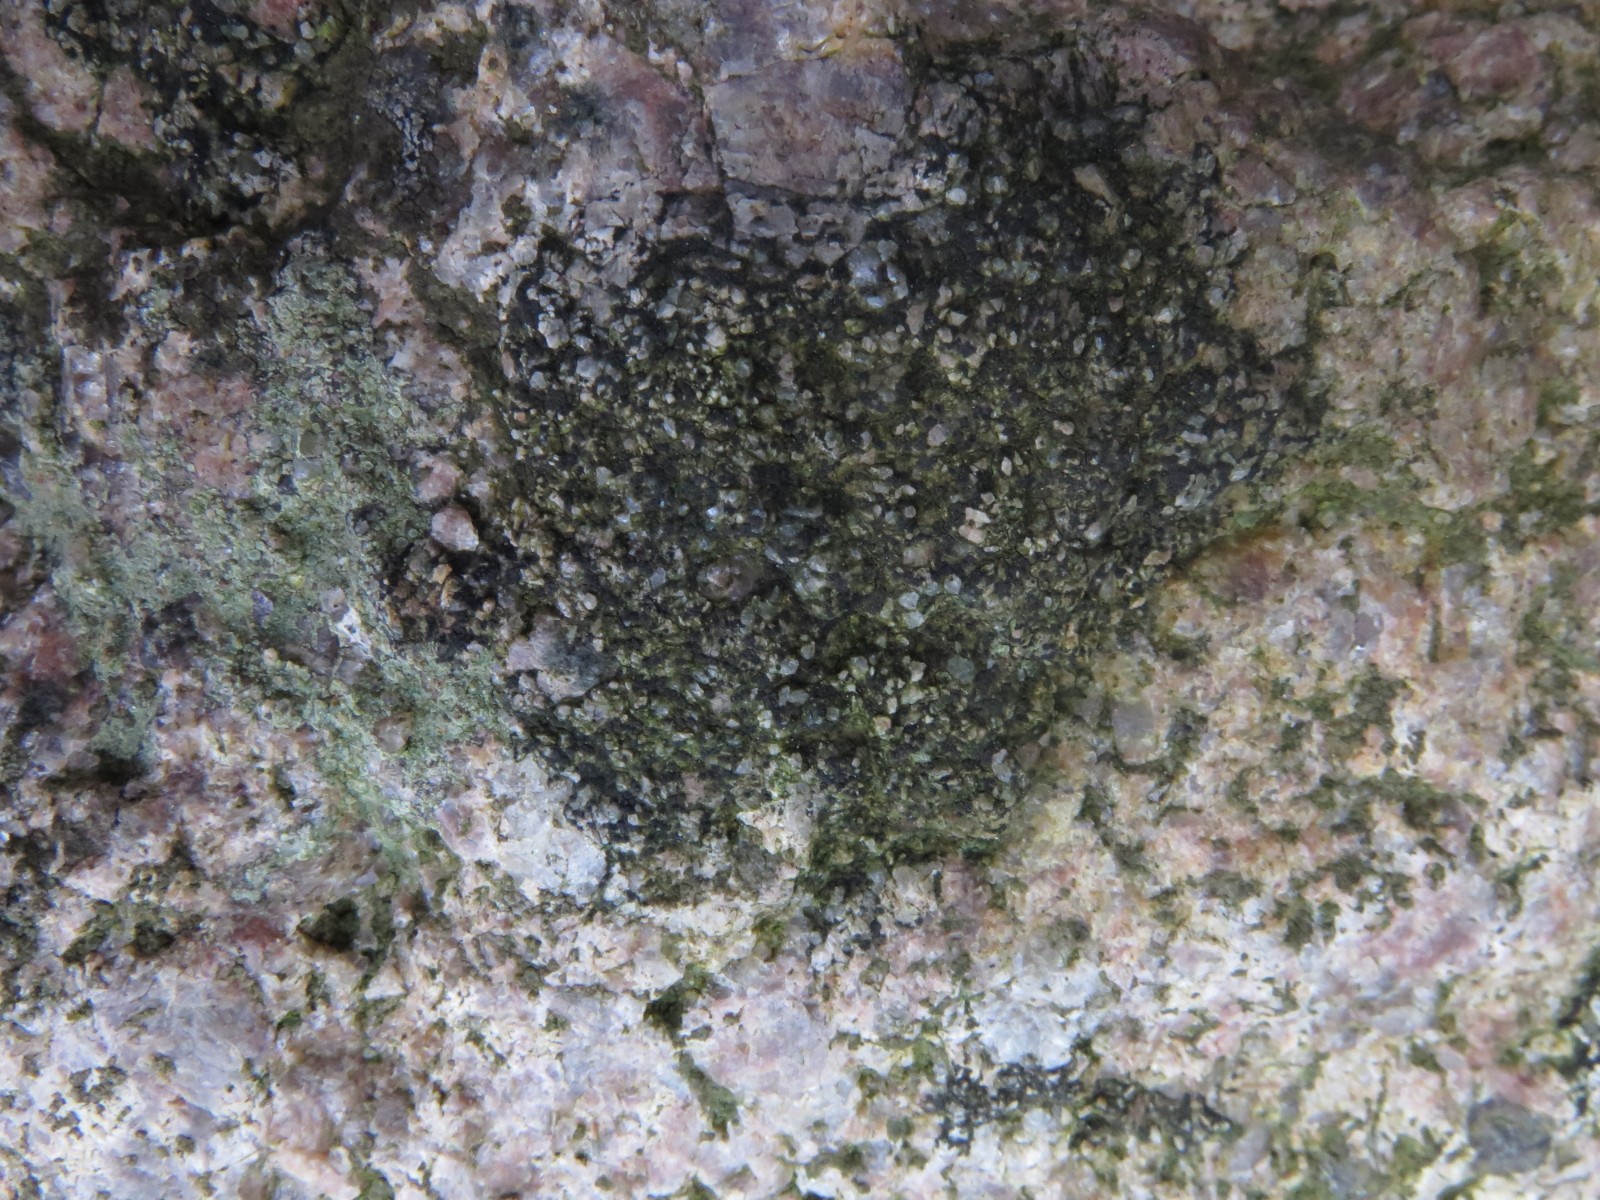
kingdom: Fungi
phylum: Ascomycota
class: Lecanoromycetes
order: Acarosporales
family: Acarosporaceae
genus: Acarospora
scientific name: Acarospora privigna
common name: sort foldekantlav
